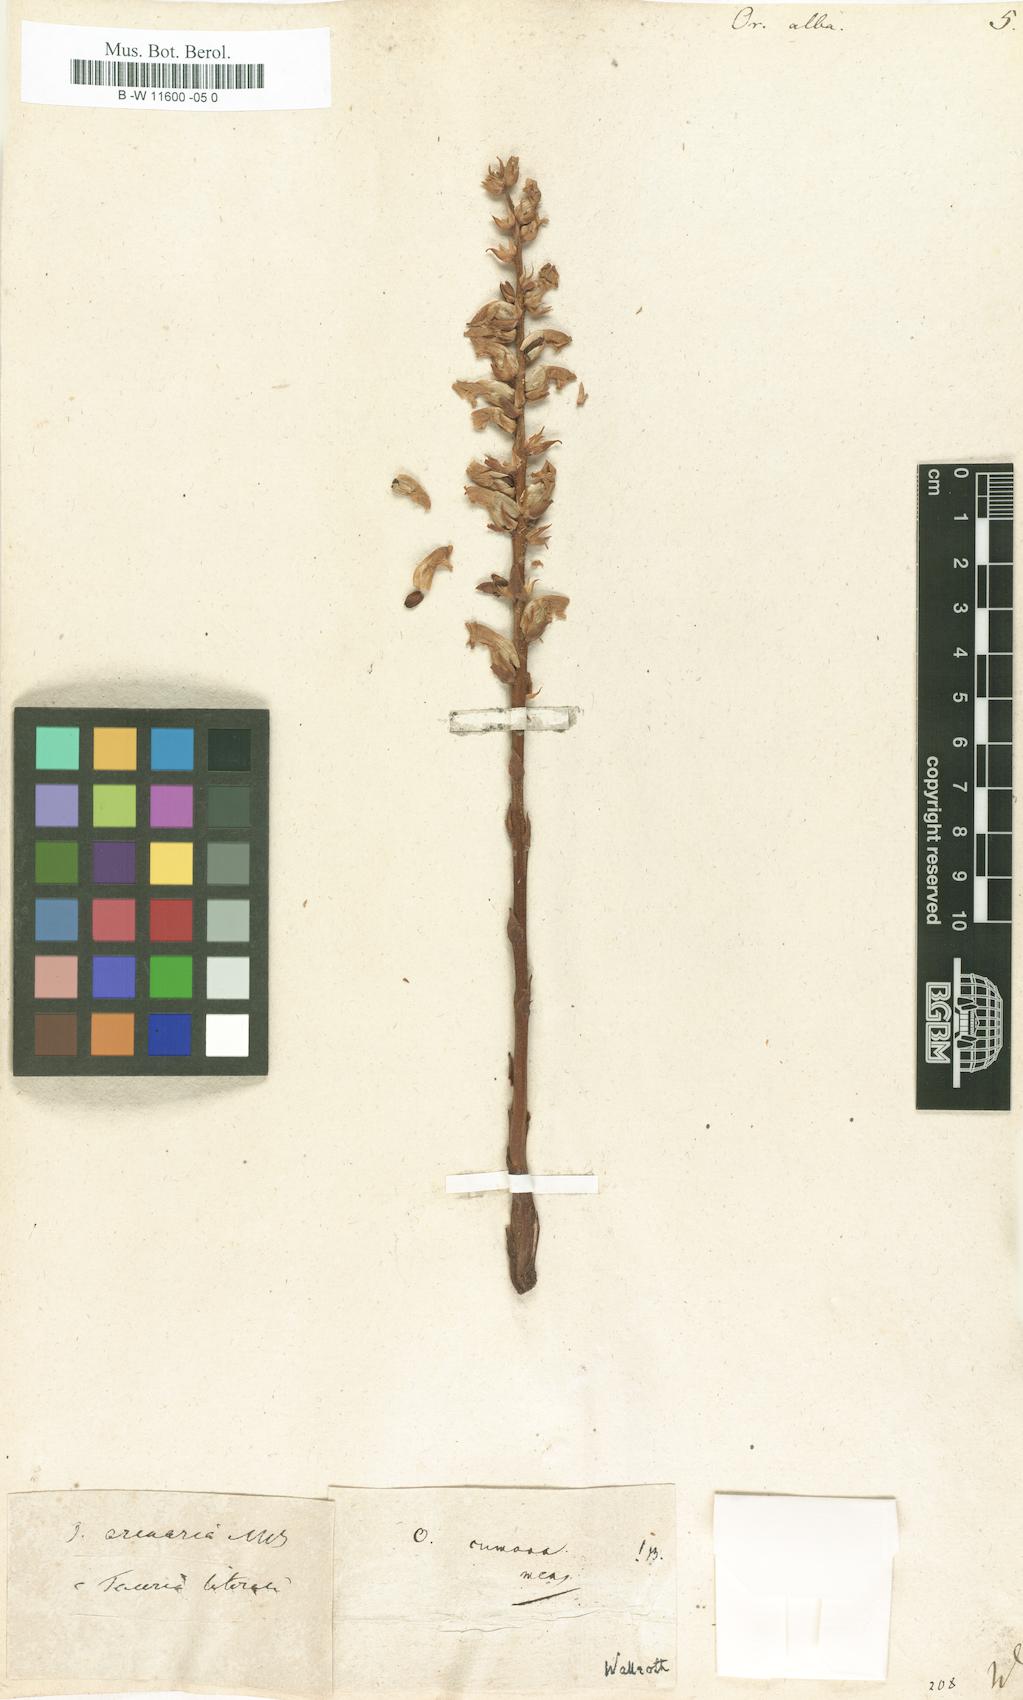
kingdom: Plantae
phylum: Tracheophyta
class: Magnoliopsida
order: Lamiales
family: Orobanchaceae
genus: Orobanche
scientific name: Orobanche alba
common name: Thyme broomrape
